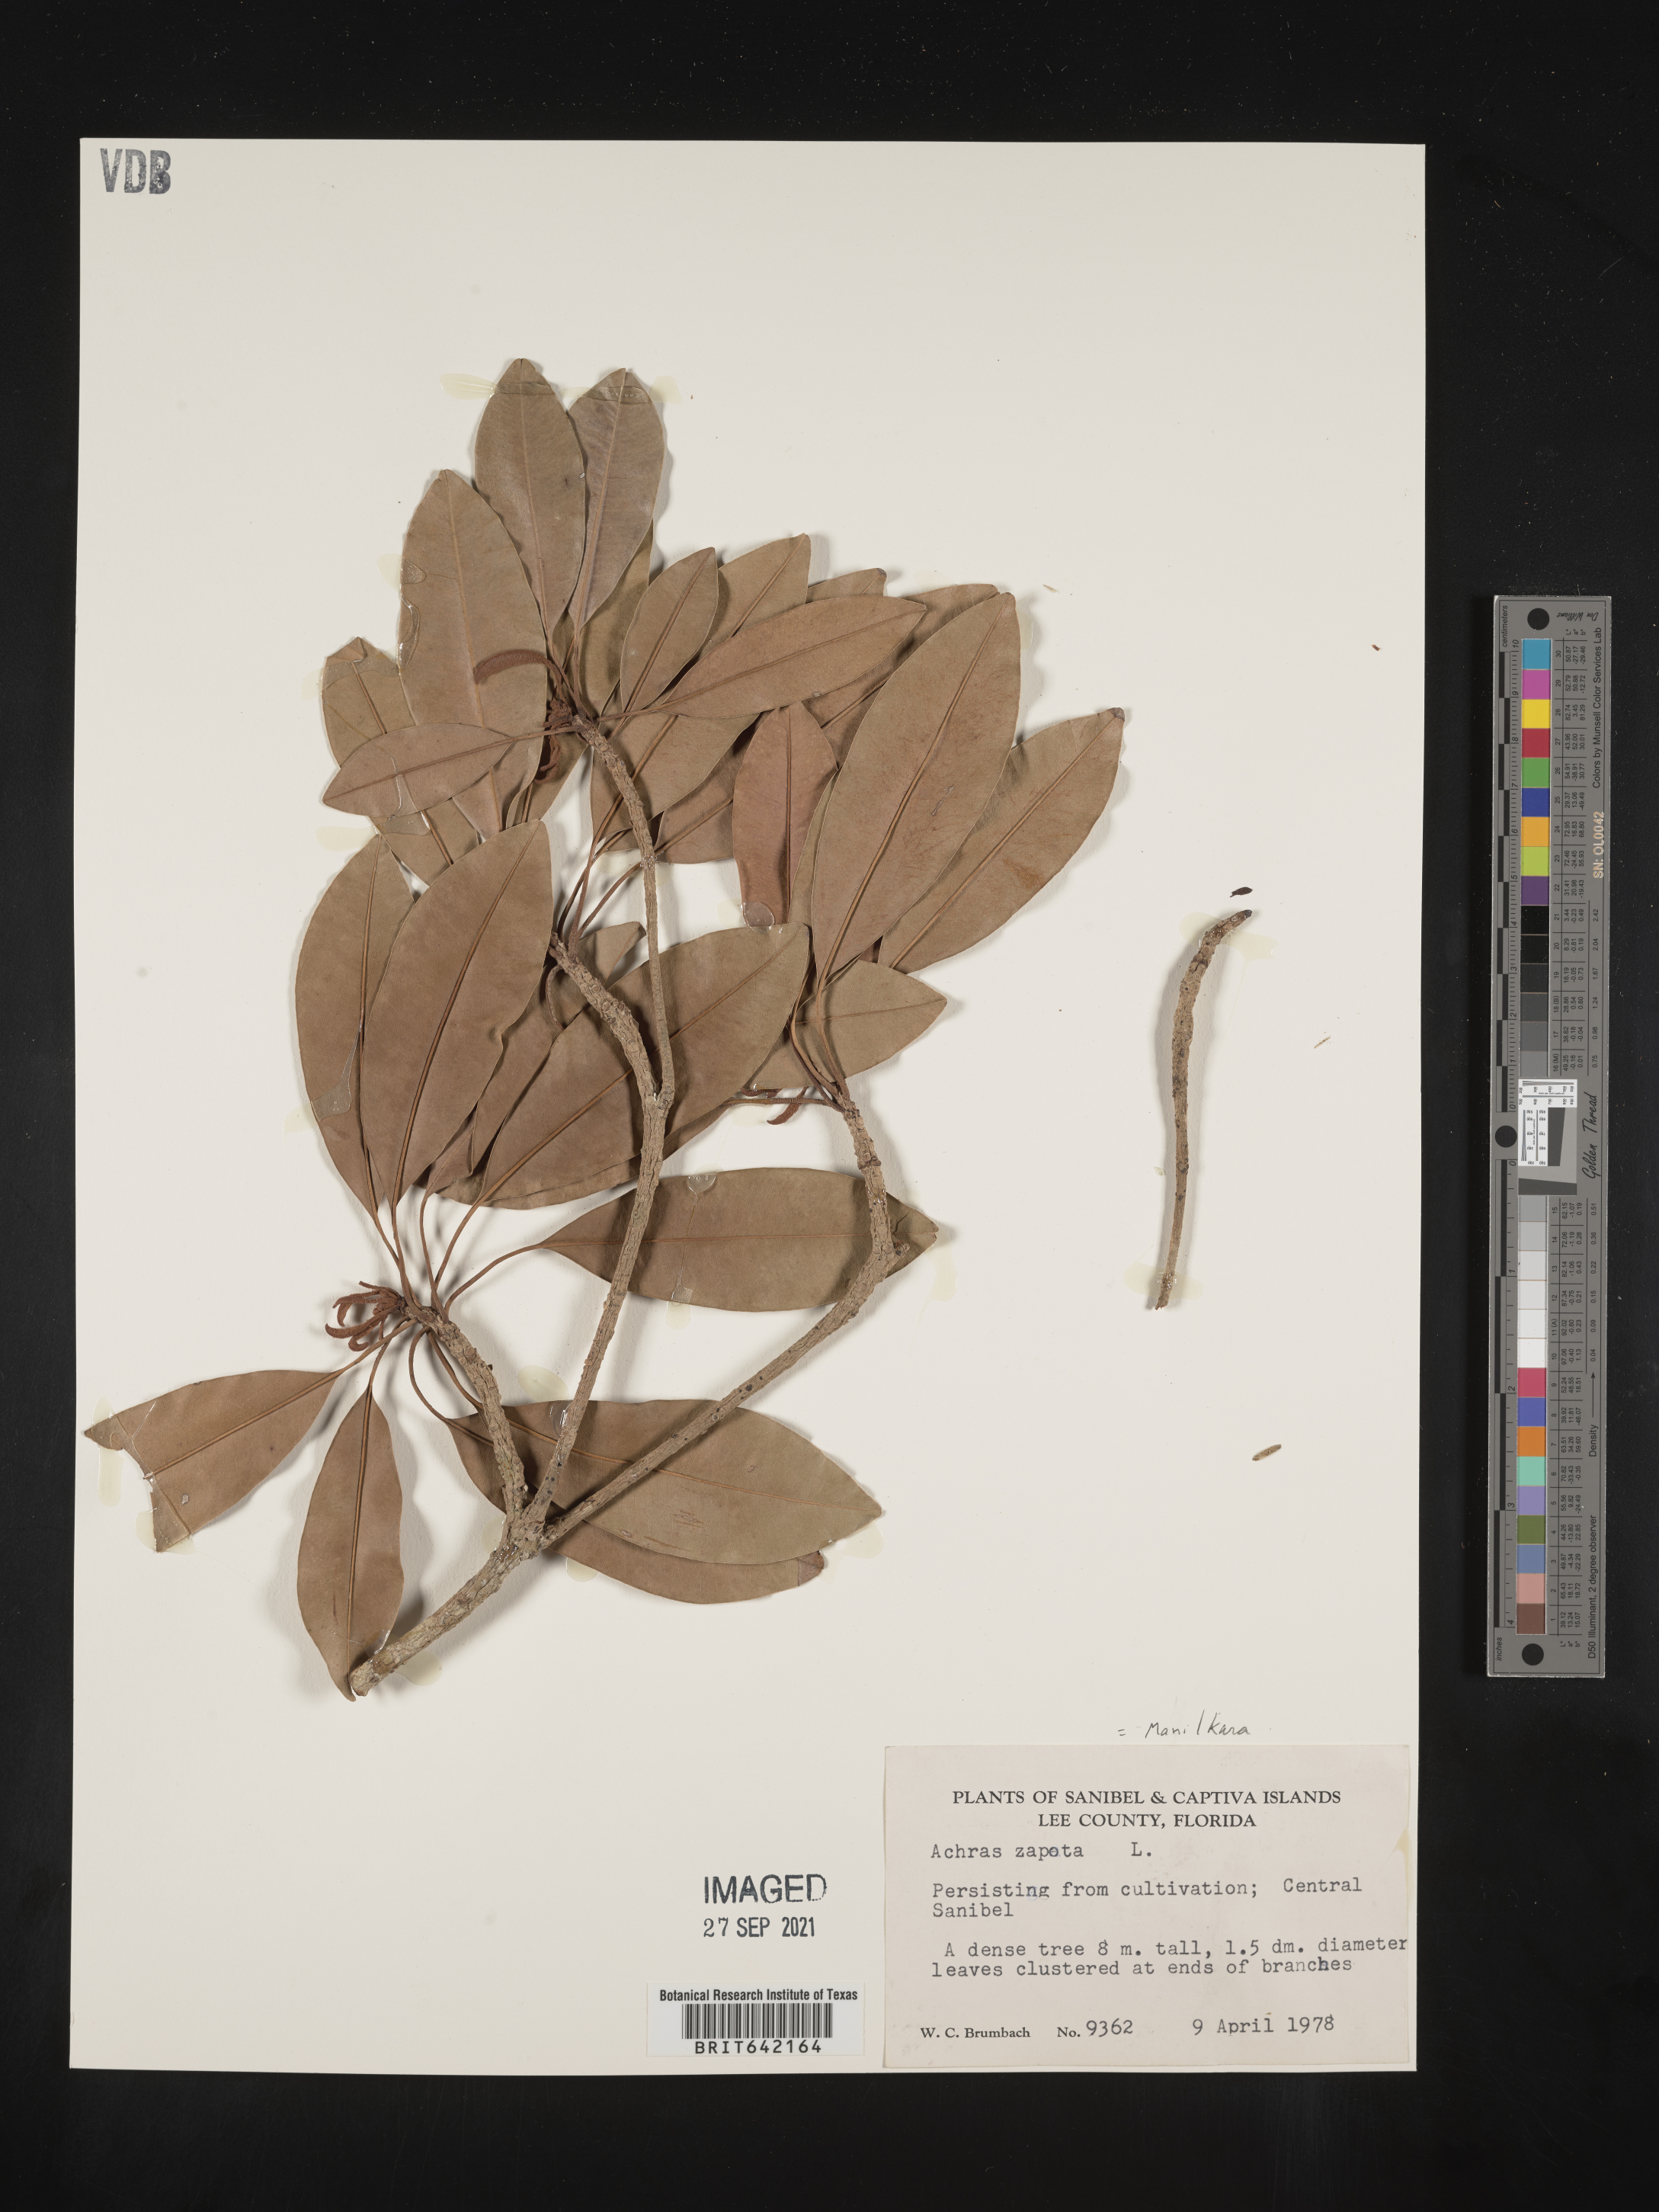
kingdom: Plantae
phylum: Tracheophyta
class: Magnoliopsida
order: Ericales
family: Sapotaceae
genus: Manilkara
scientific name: Manilkara zapota
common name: Sapodilla
